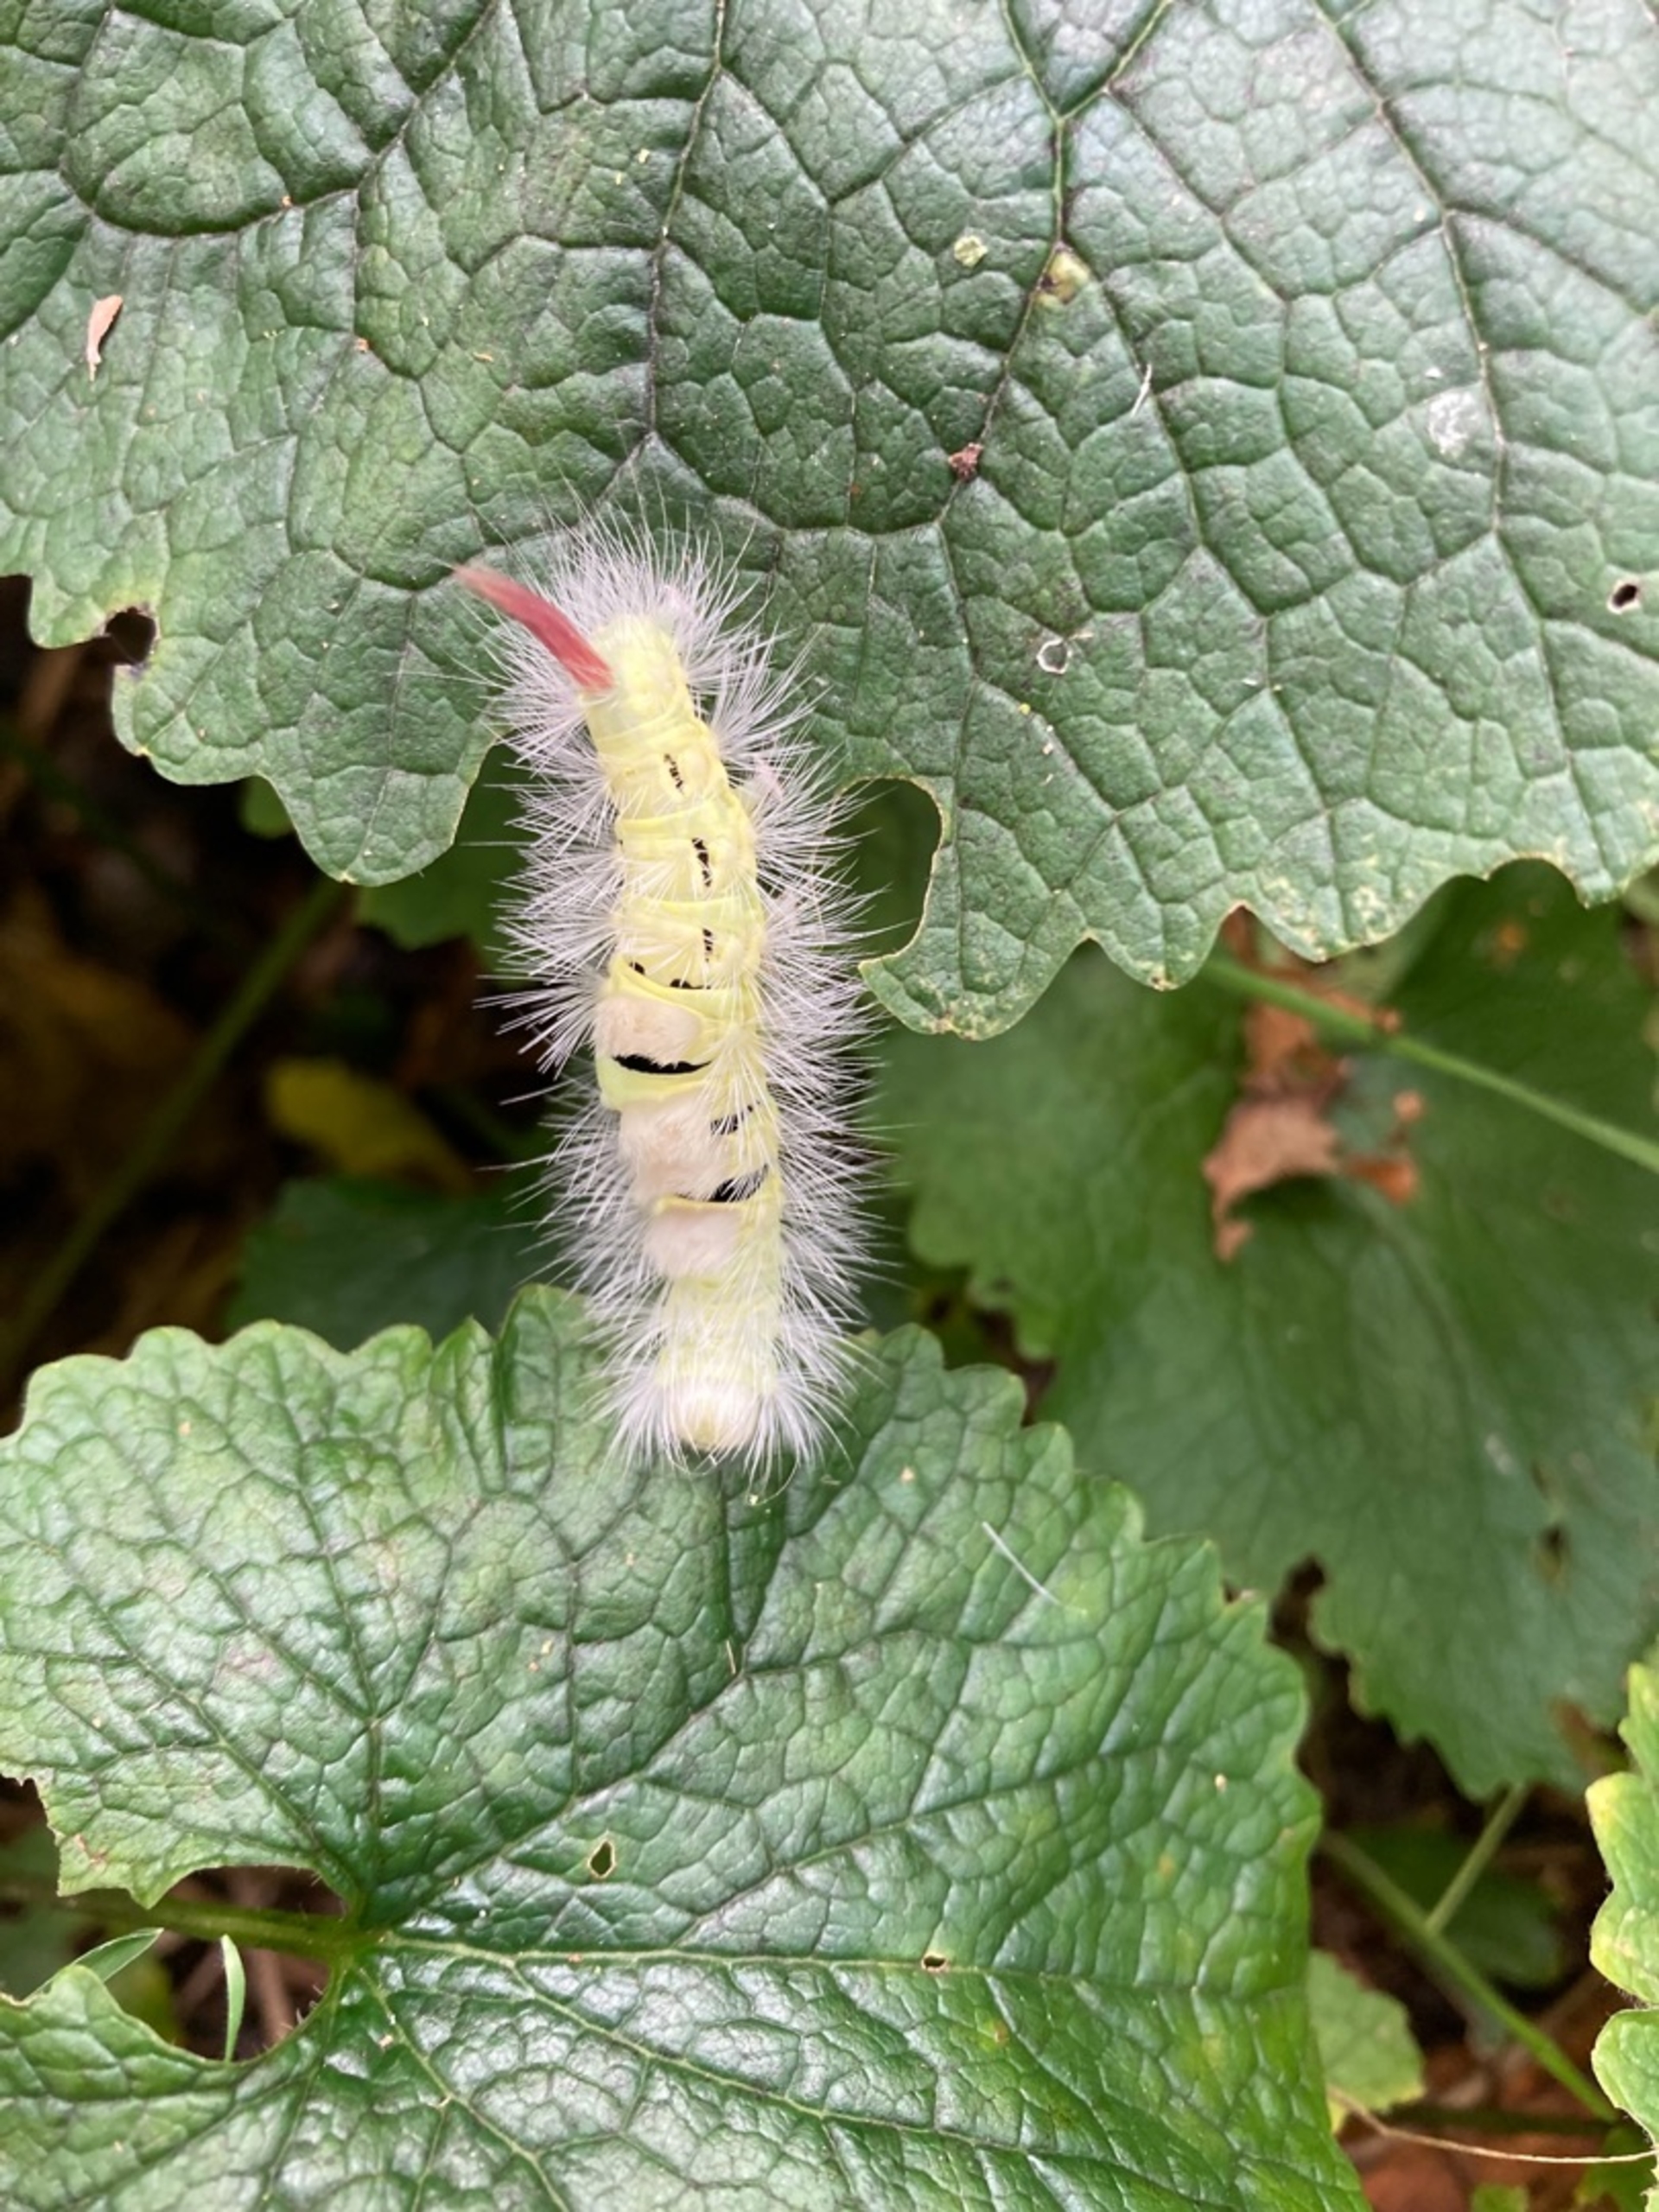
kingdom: Animalia
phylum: Arthropoda
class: Insecta
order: Lepidoptera
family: Erebidae
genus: Calliteara
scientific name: Calliteara pudibunda
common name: Bøgenonne
